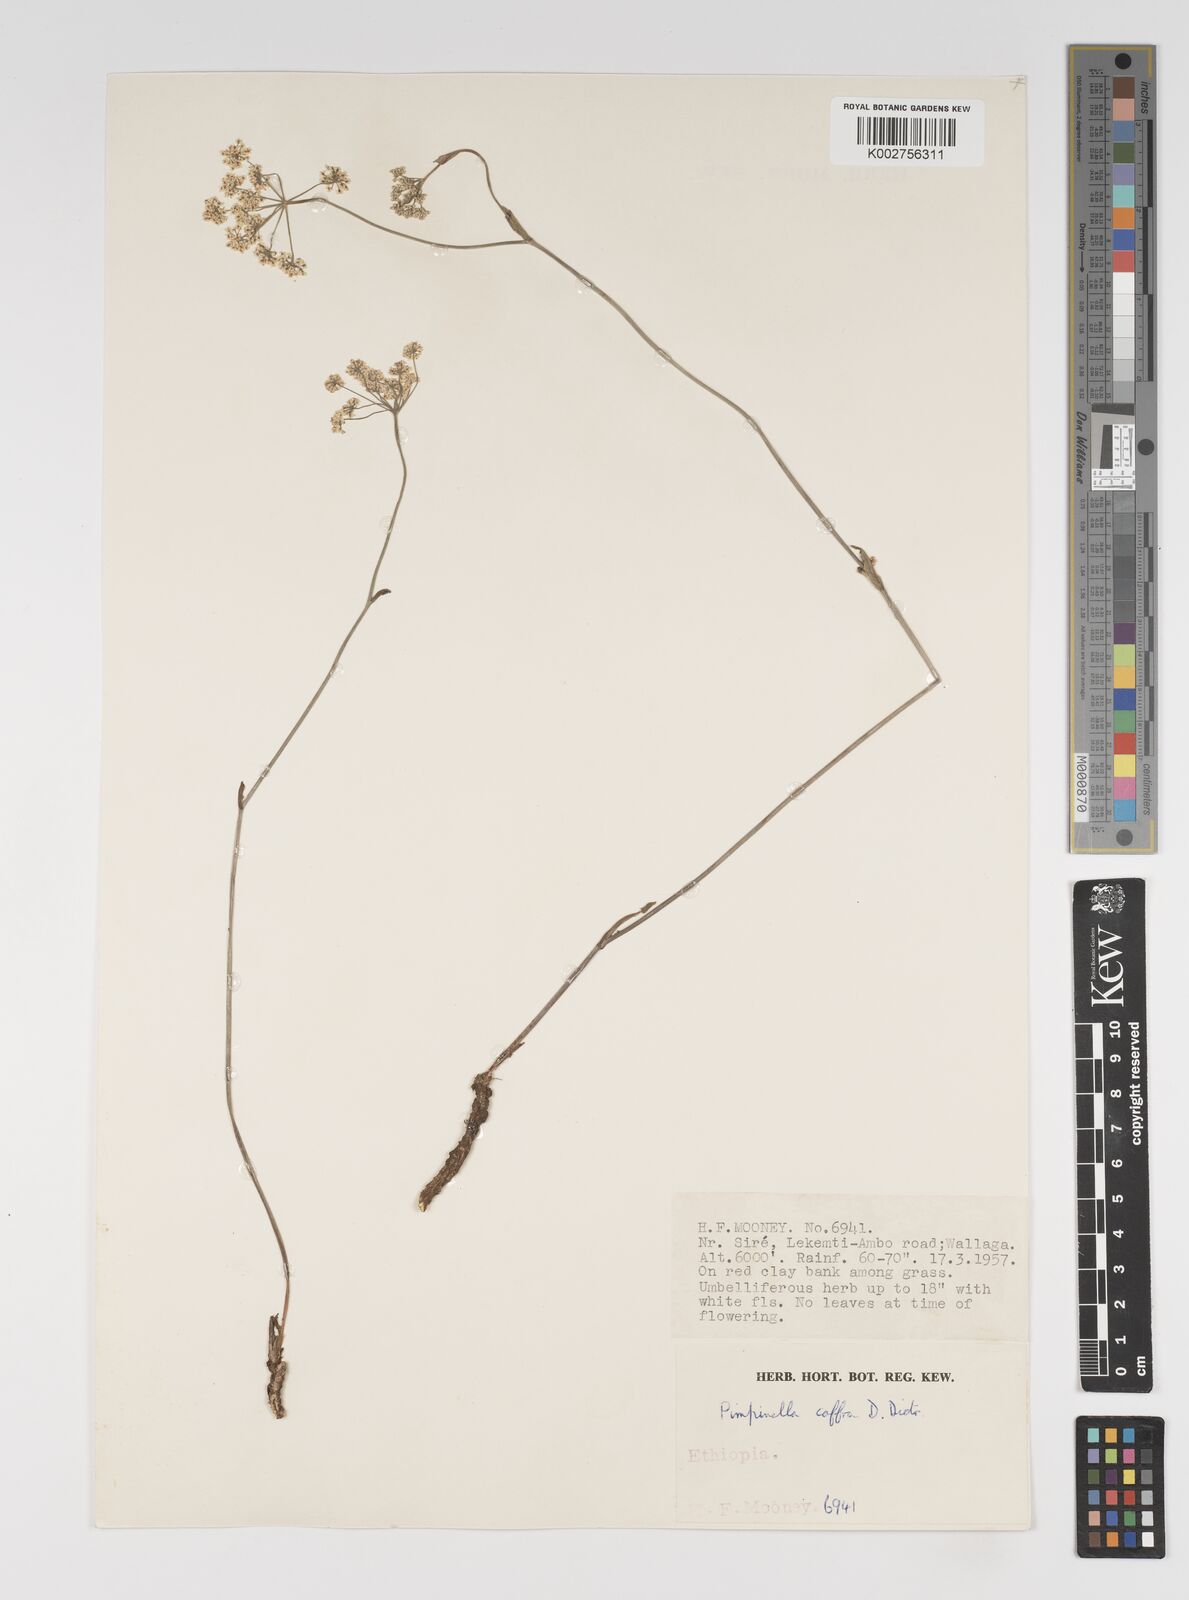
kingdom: Plantae
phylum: Tracheophyta
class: Magnoliopsida
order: Apiales
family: Apiaceae
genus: Pimpinella
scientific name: Pimpinella peregrina
